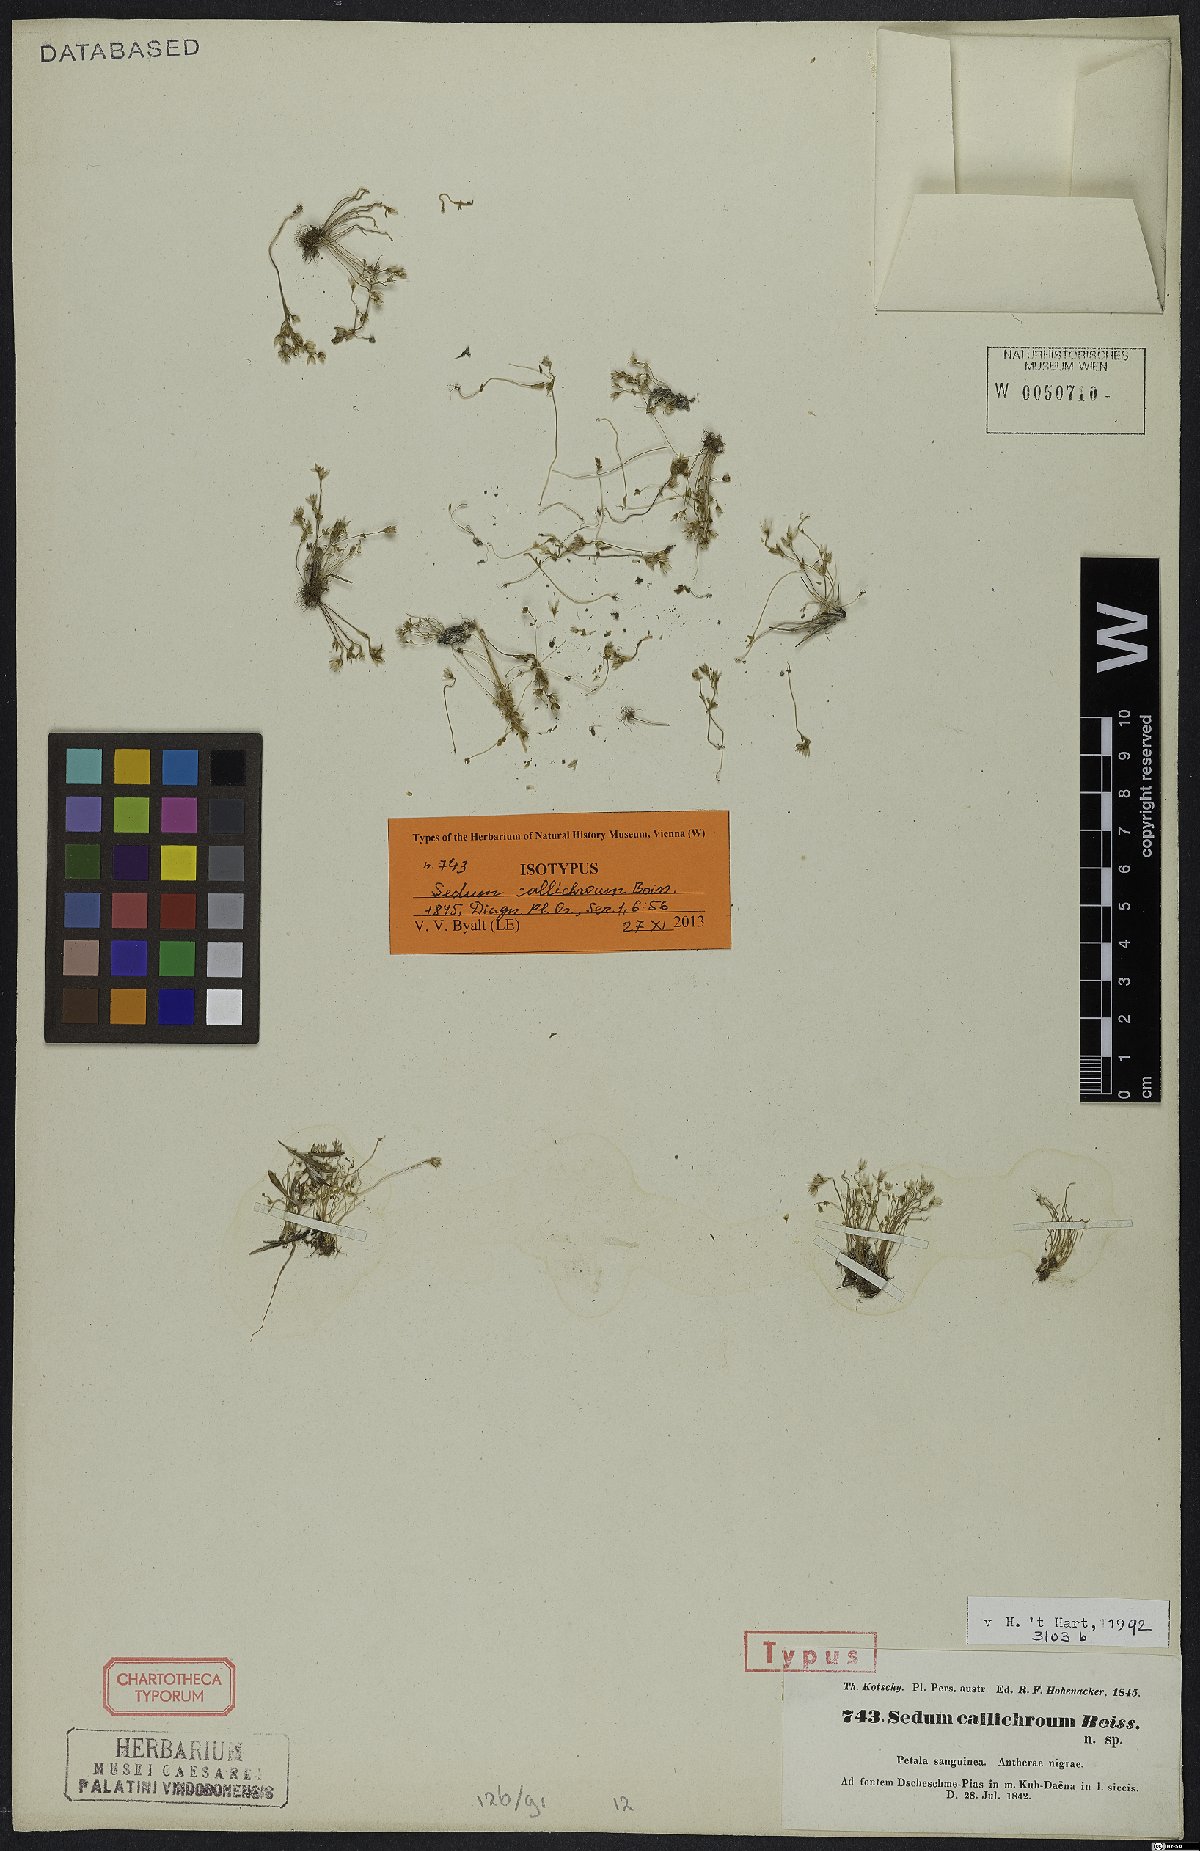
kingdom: Plantae
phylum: Tracheophyta
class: Magnoliopsida
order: Saxifragales
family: Crassulaceae
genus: Sedum
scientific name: Sedum callichroum
